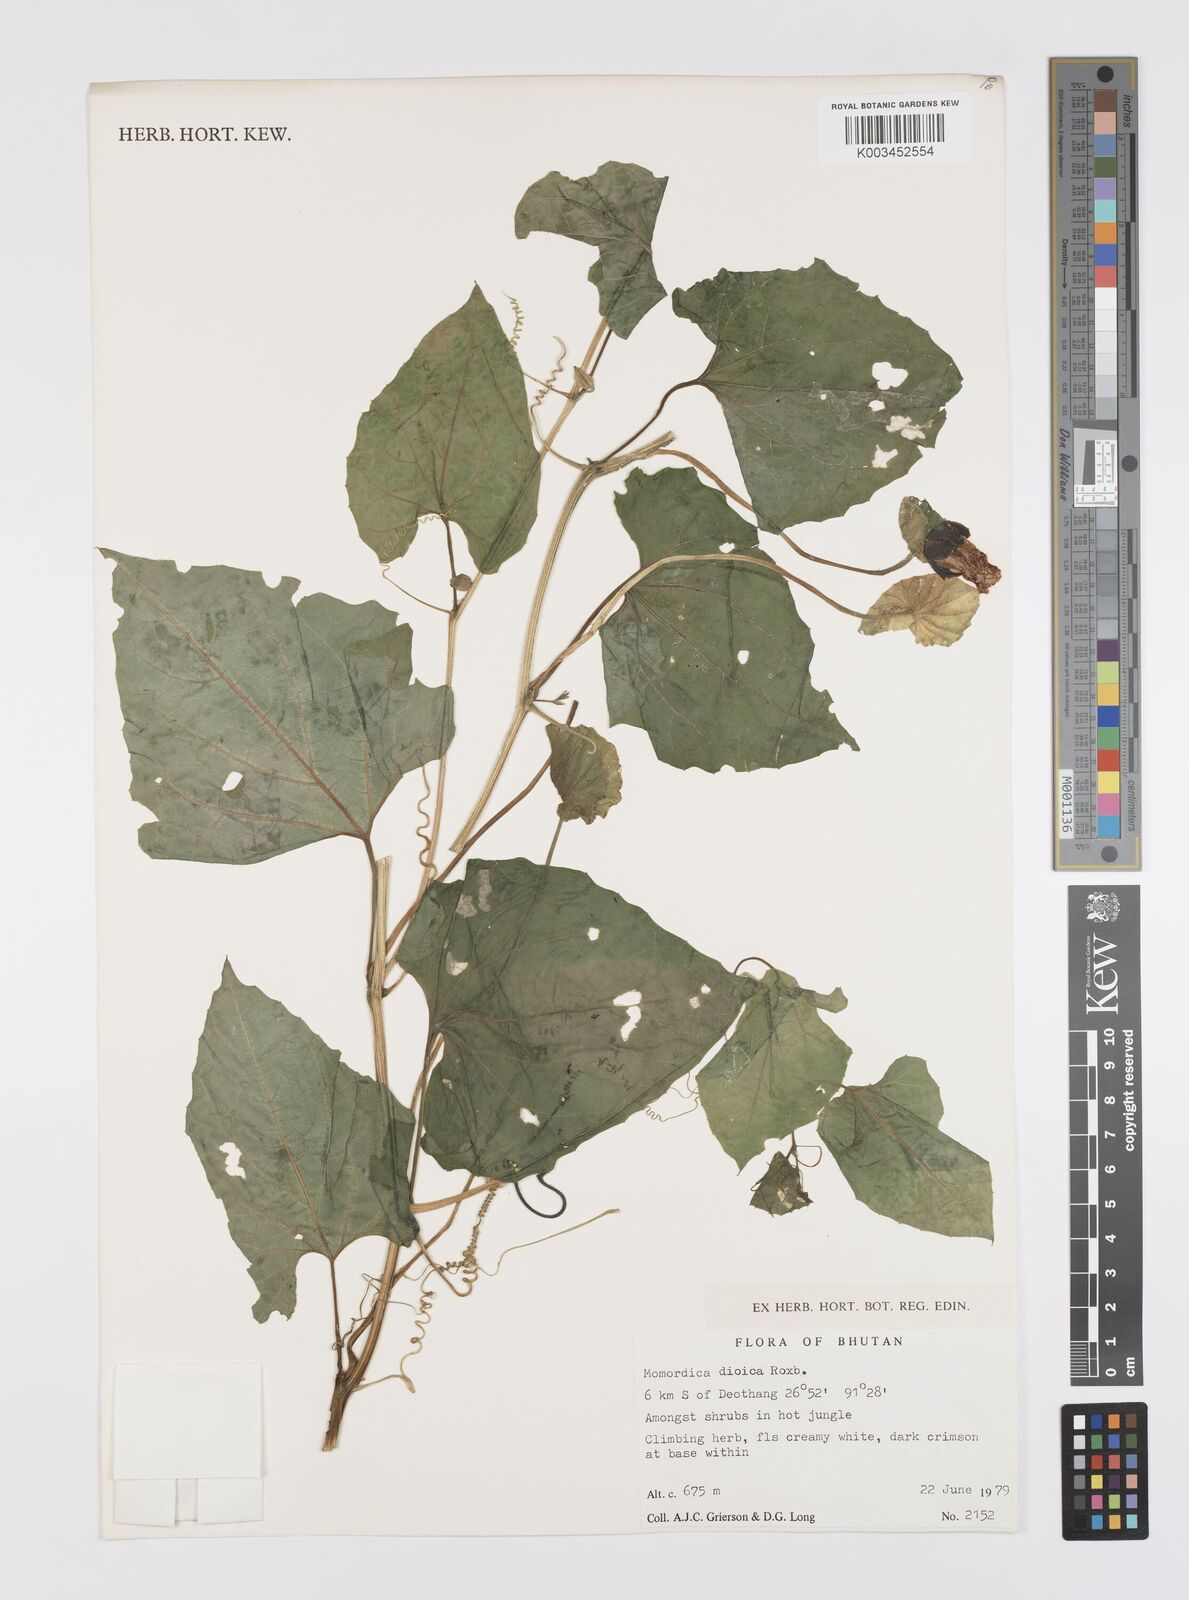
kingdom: Plantae
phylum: Tracheophyta
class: Magnoliopsida
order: Cucurbitales
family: Cucurbitaceae
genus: Momordica
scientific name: Momordica dioica
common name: Spine gourd
